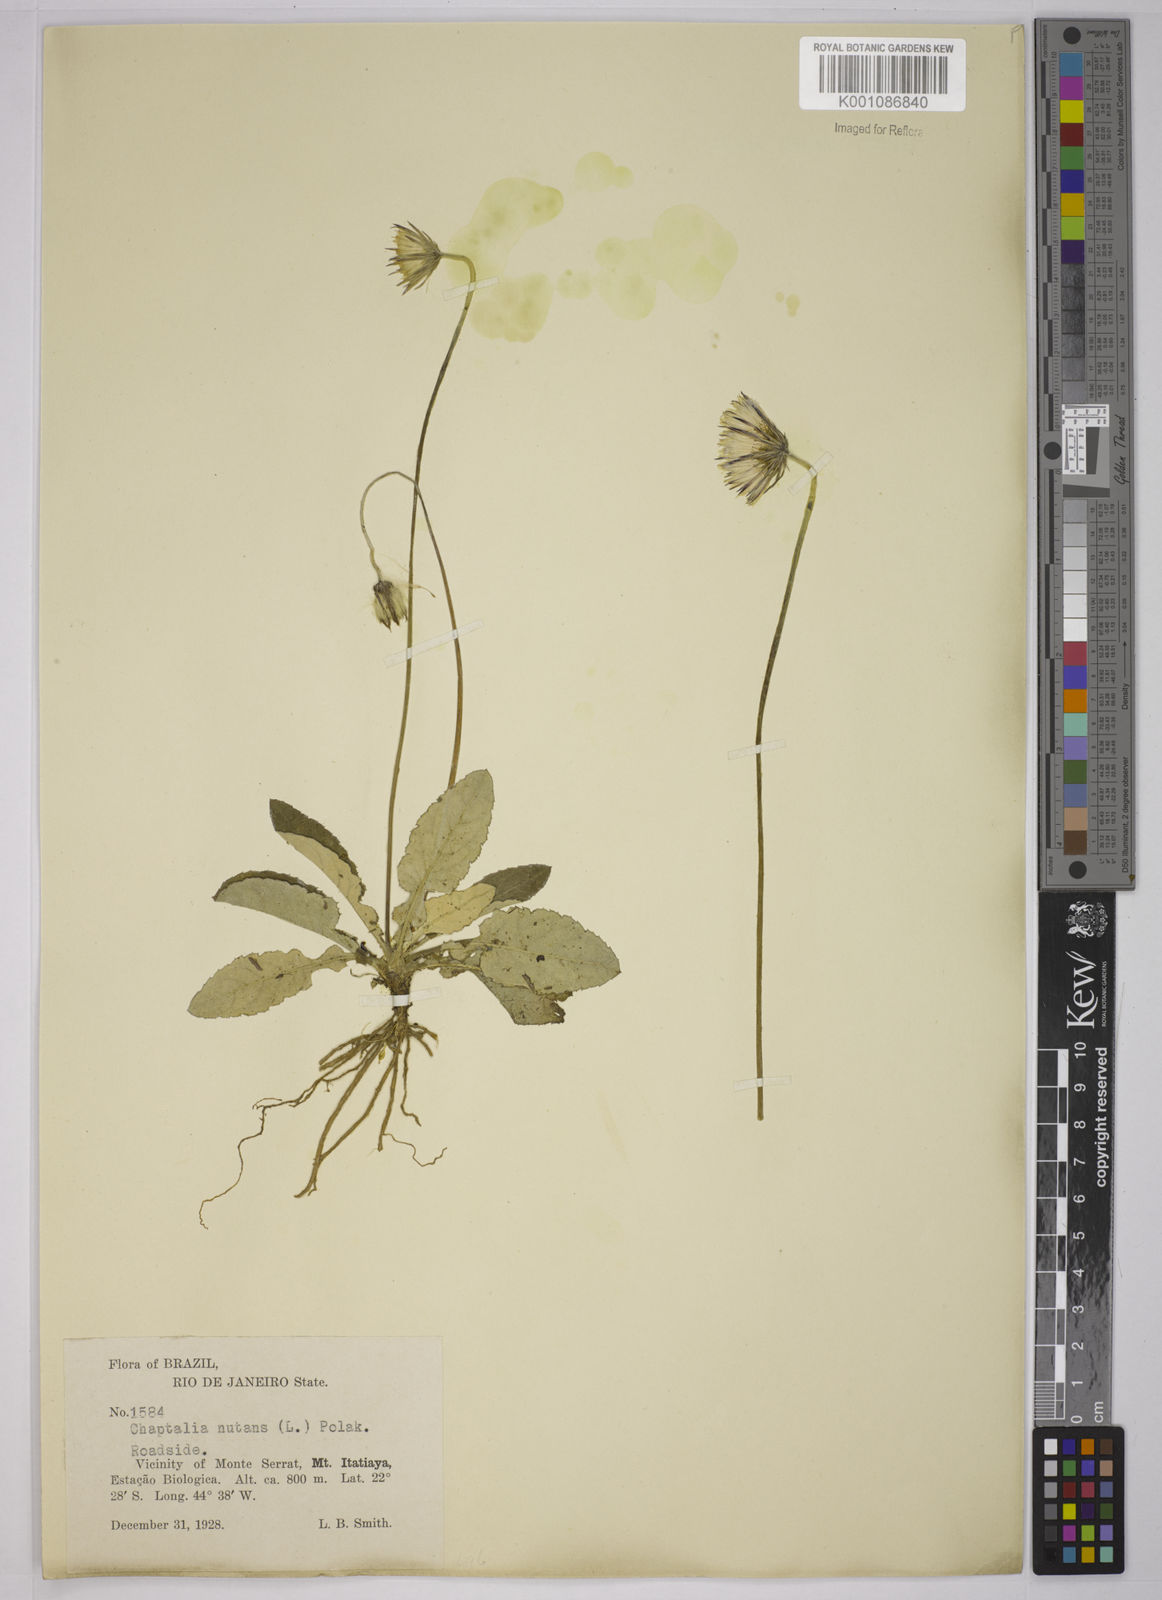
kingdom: Plantae
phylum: Tracheophyta
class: Magnoliopsida
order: Asterales
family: Asteraceae
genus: Chaptalia
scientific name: Chaptalia nutans
